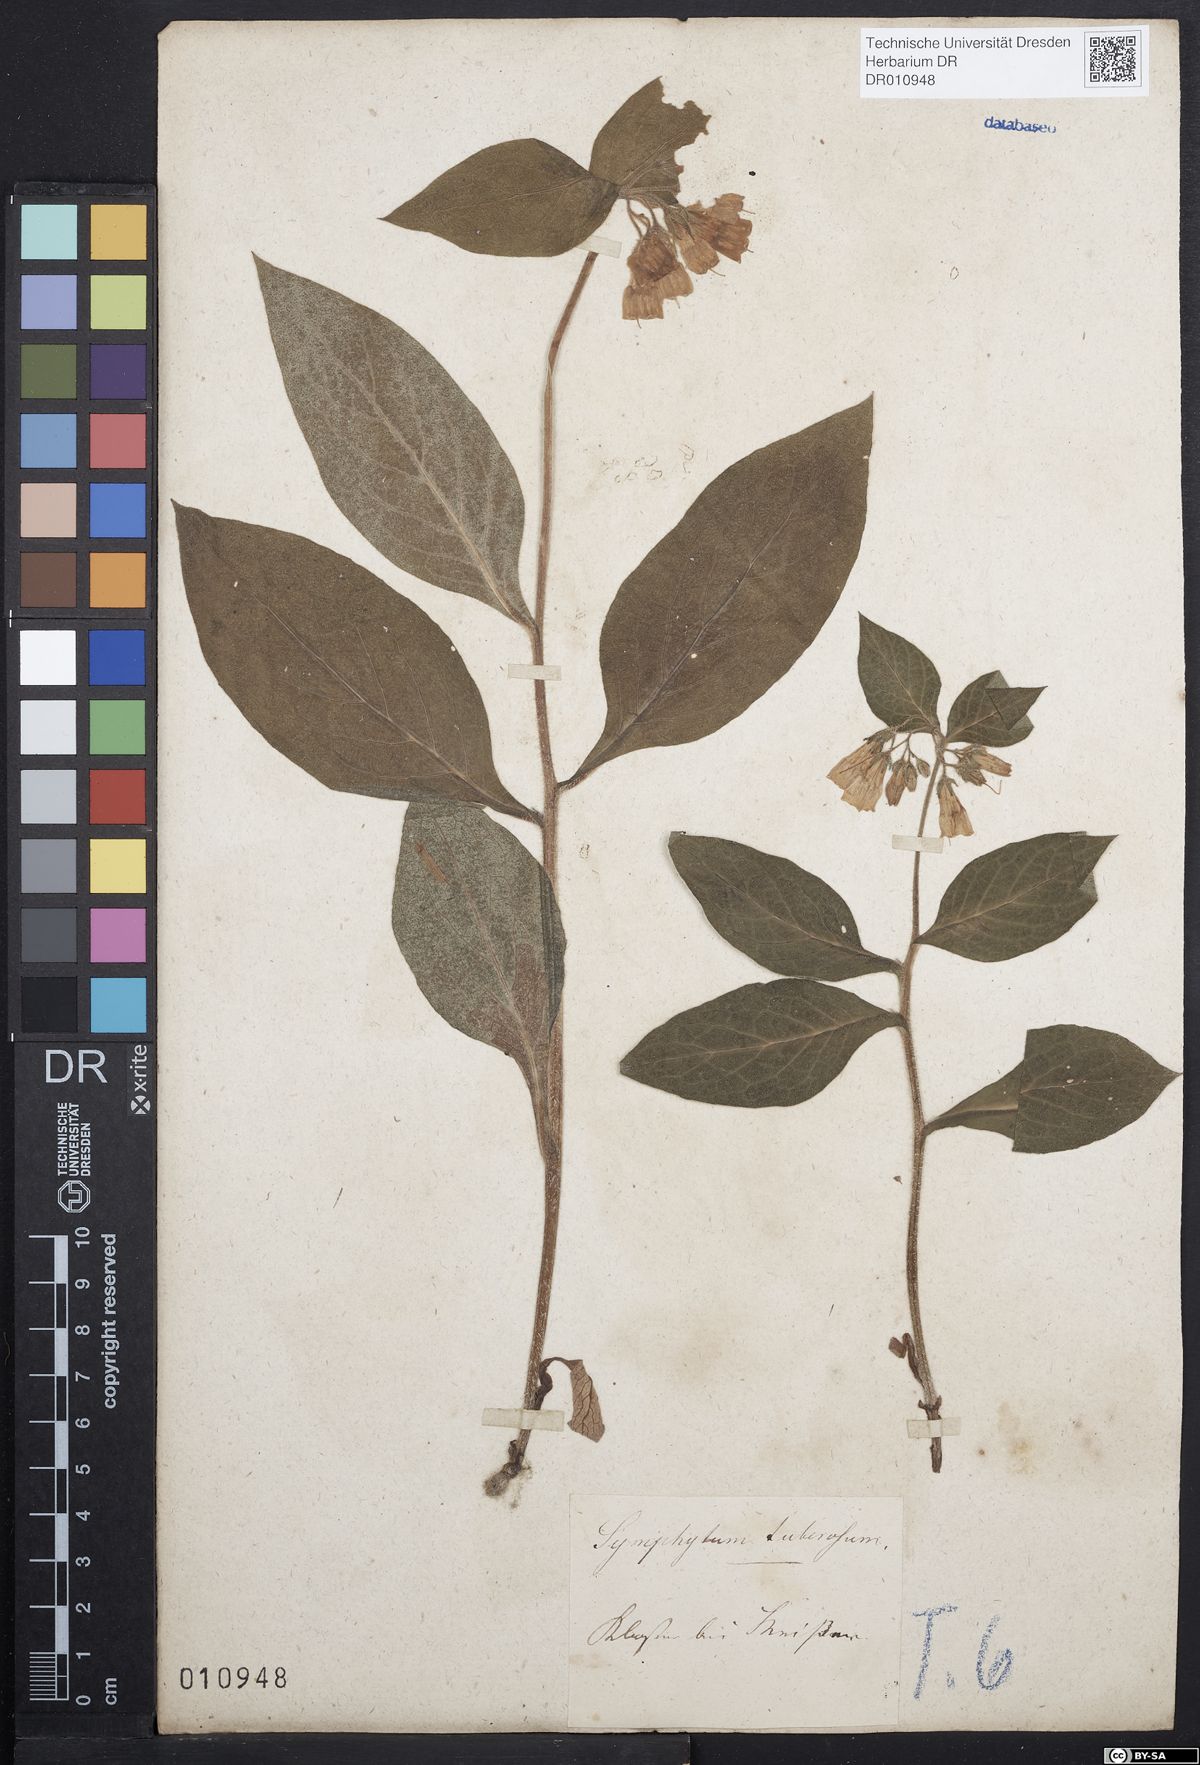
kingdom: Plantae
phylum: Tracheophyta
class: Magnoliopsida
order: Boraginales
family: Boraginaceae
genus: Symphytum
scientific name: Symphytum tuberosum
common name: Tuberous comfrey
